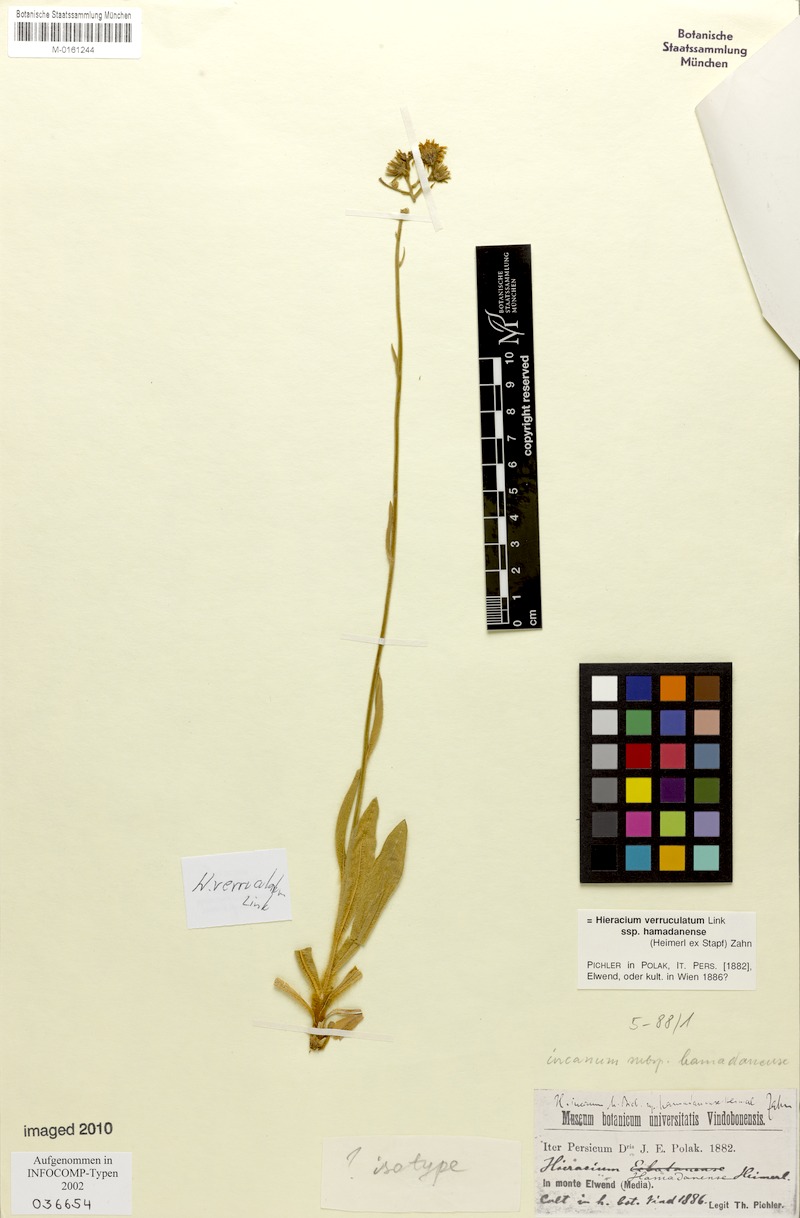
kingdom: Plantae
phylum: Tracheophyta
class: Magnoliopsida
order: Asterales
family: Asteraceae
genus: Hieracium
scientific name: Hieracium
